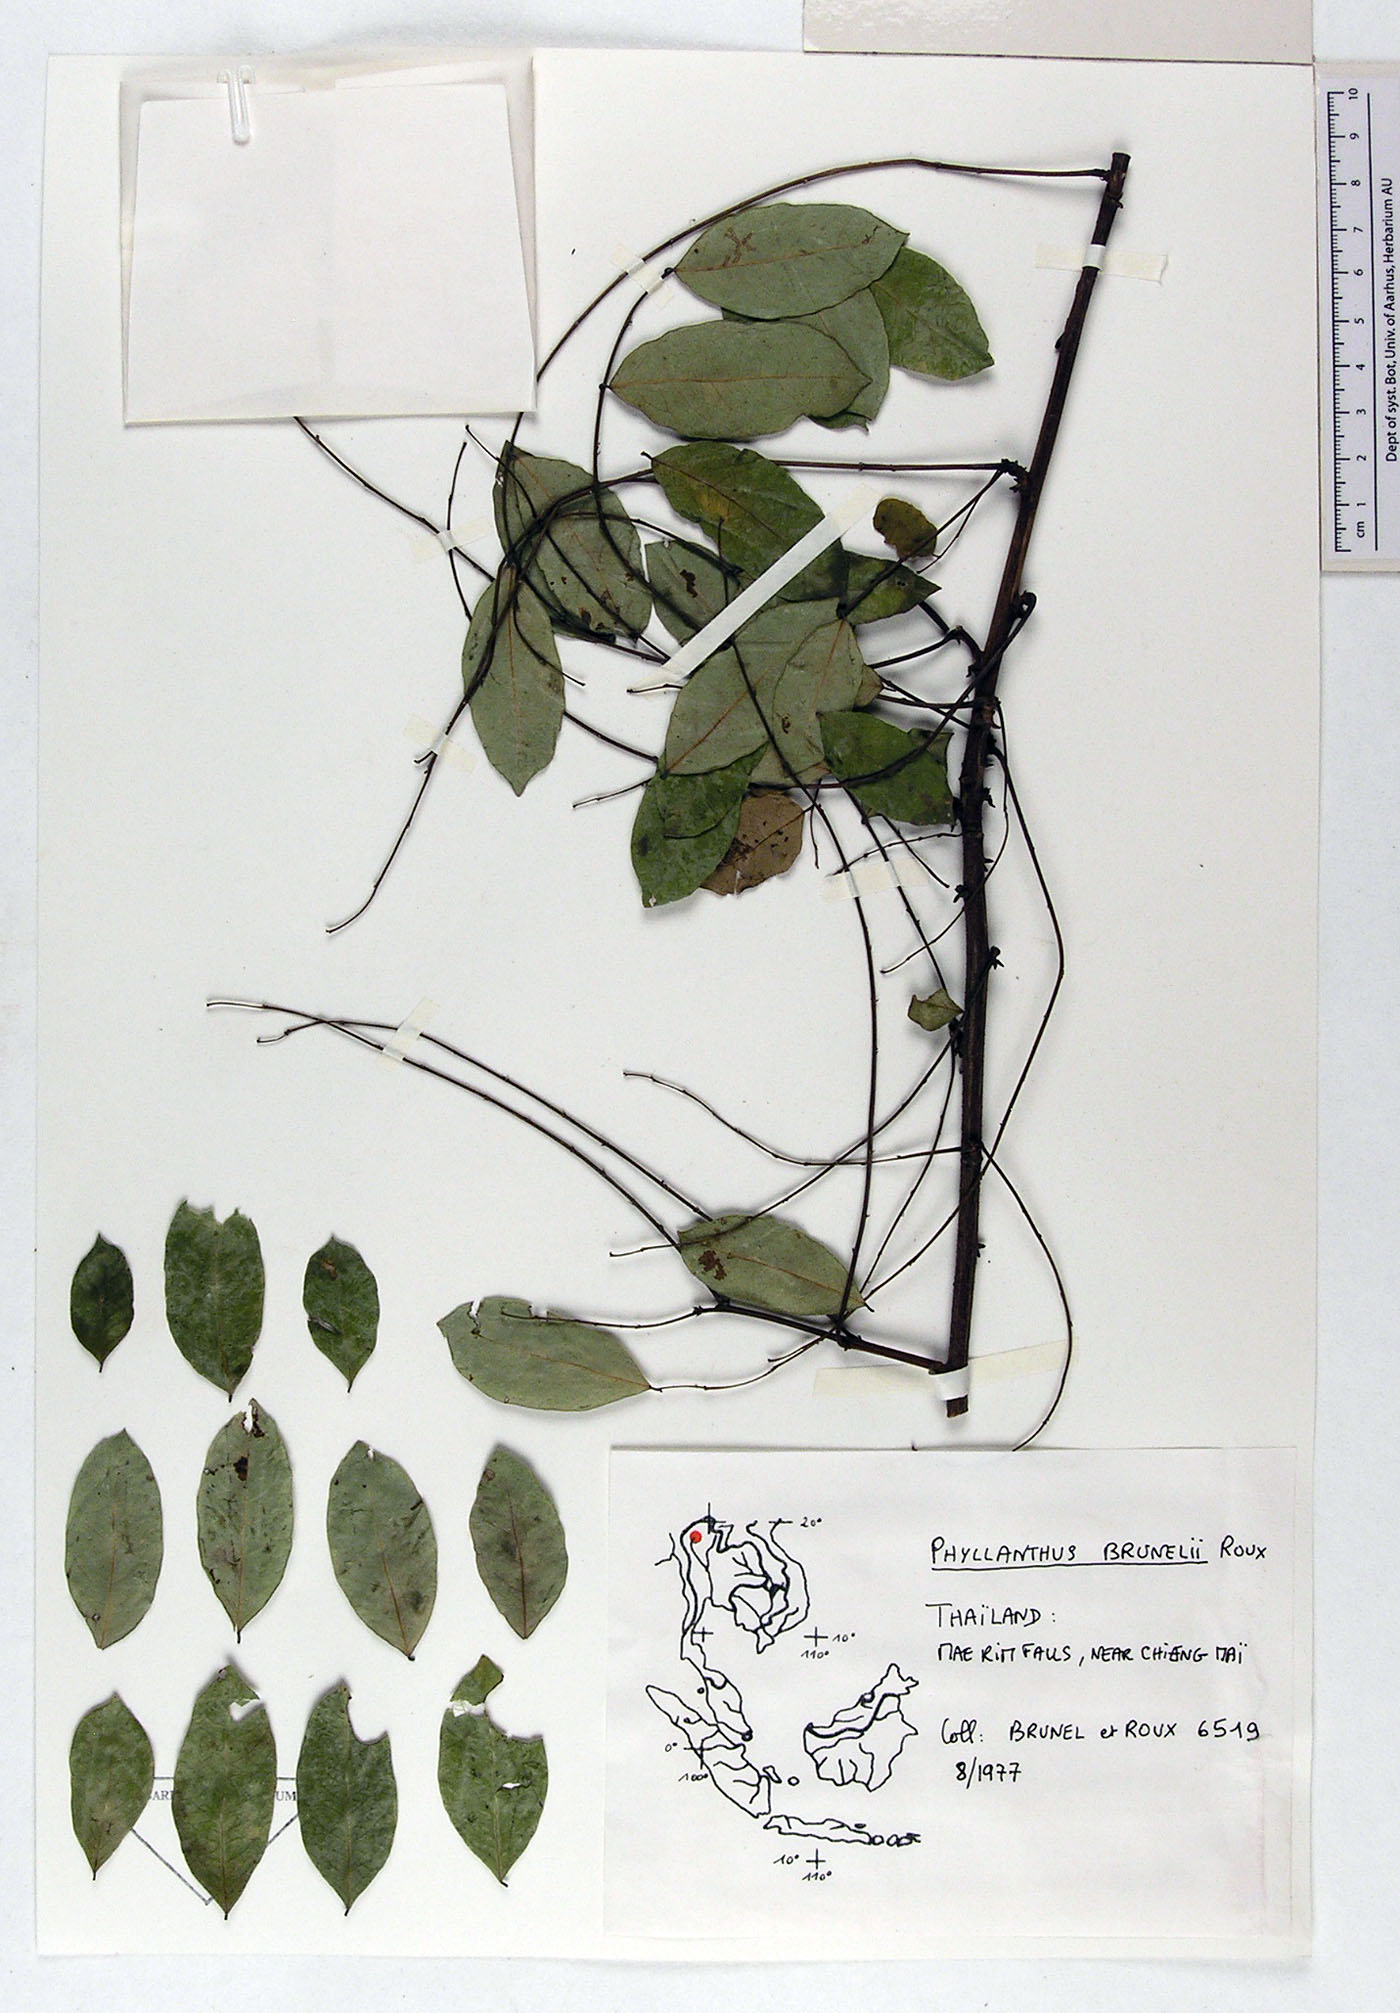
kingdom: Plantae
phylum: Tracheophyta
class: Magnoliopsida
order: Malpighiales
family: Phyllanthaceae
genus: Phyllanthus
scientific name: Phyllanthus microcarpus
